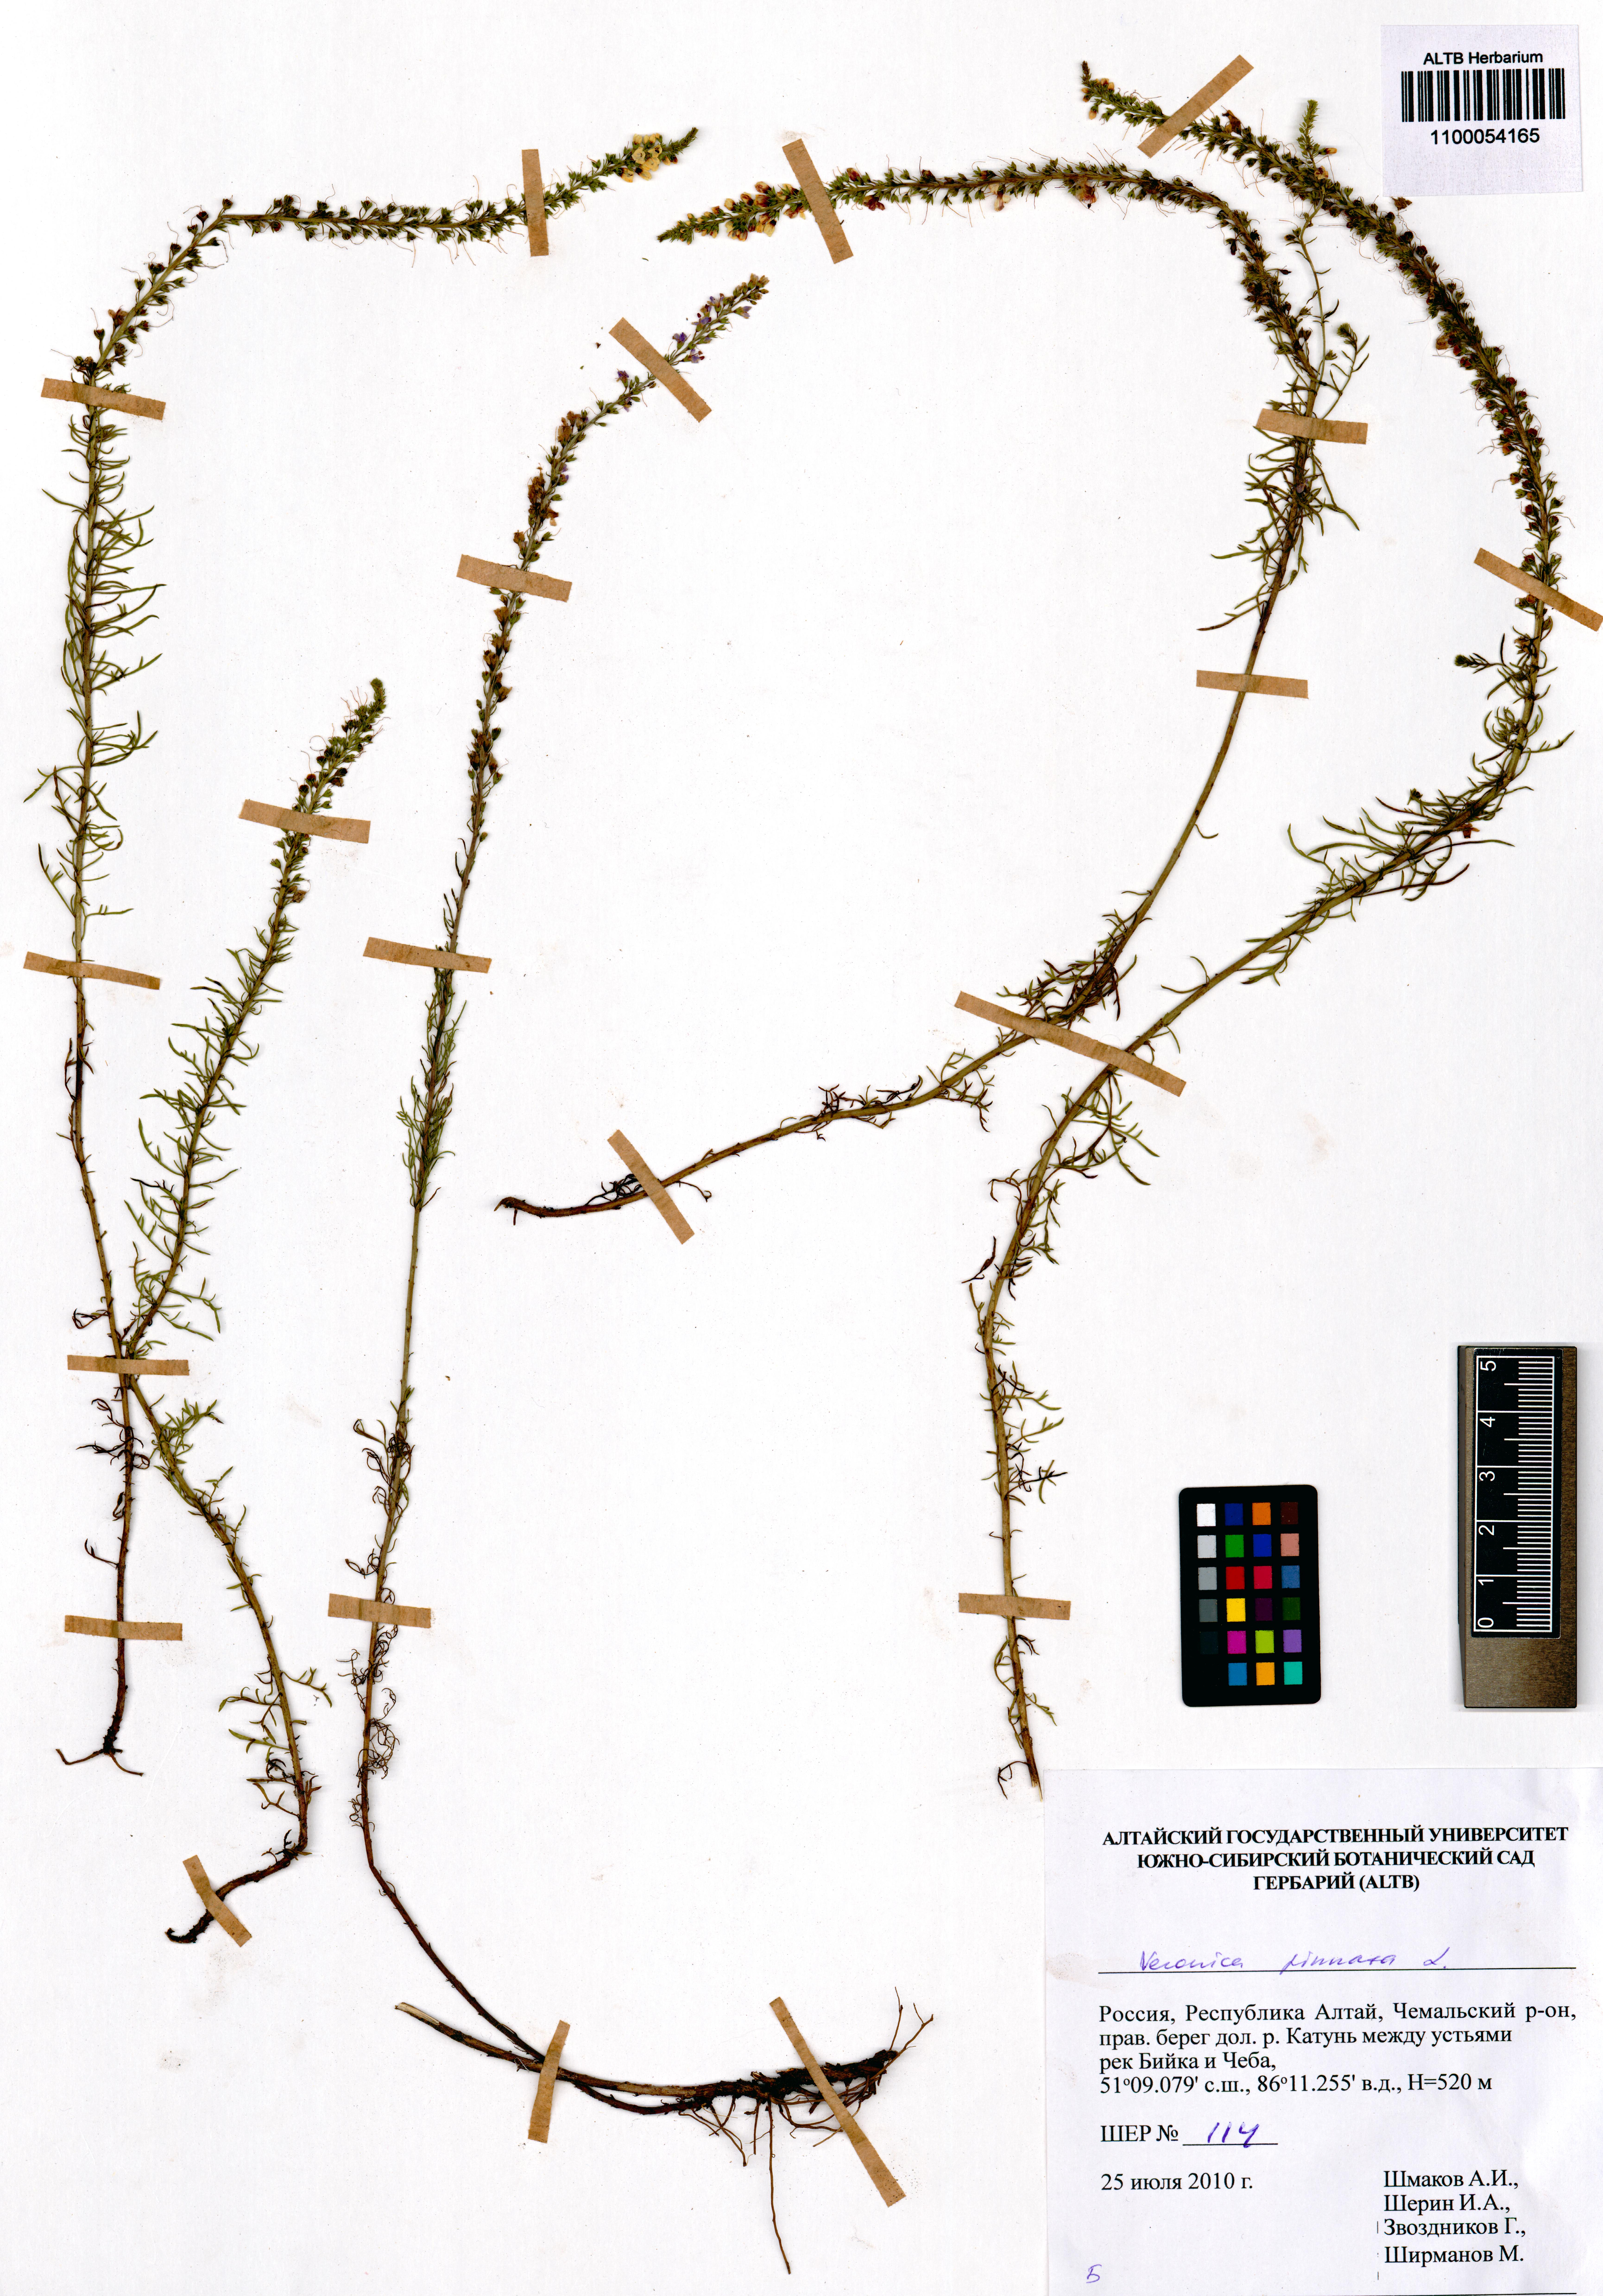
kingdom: Plantae
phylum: Tracheophyta
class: Magnoliopsida
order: Lamiales
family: Plantaginaceae
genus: Veronica
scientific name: Veronica pinnata
